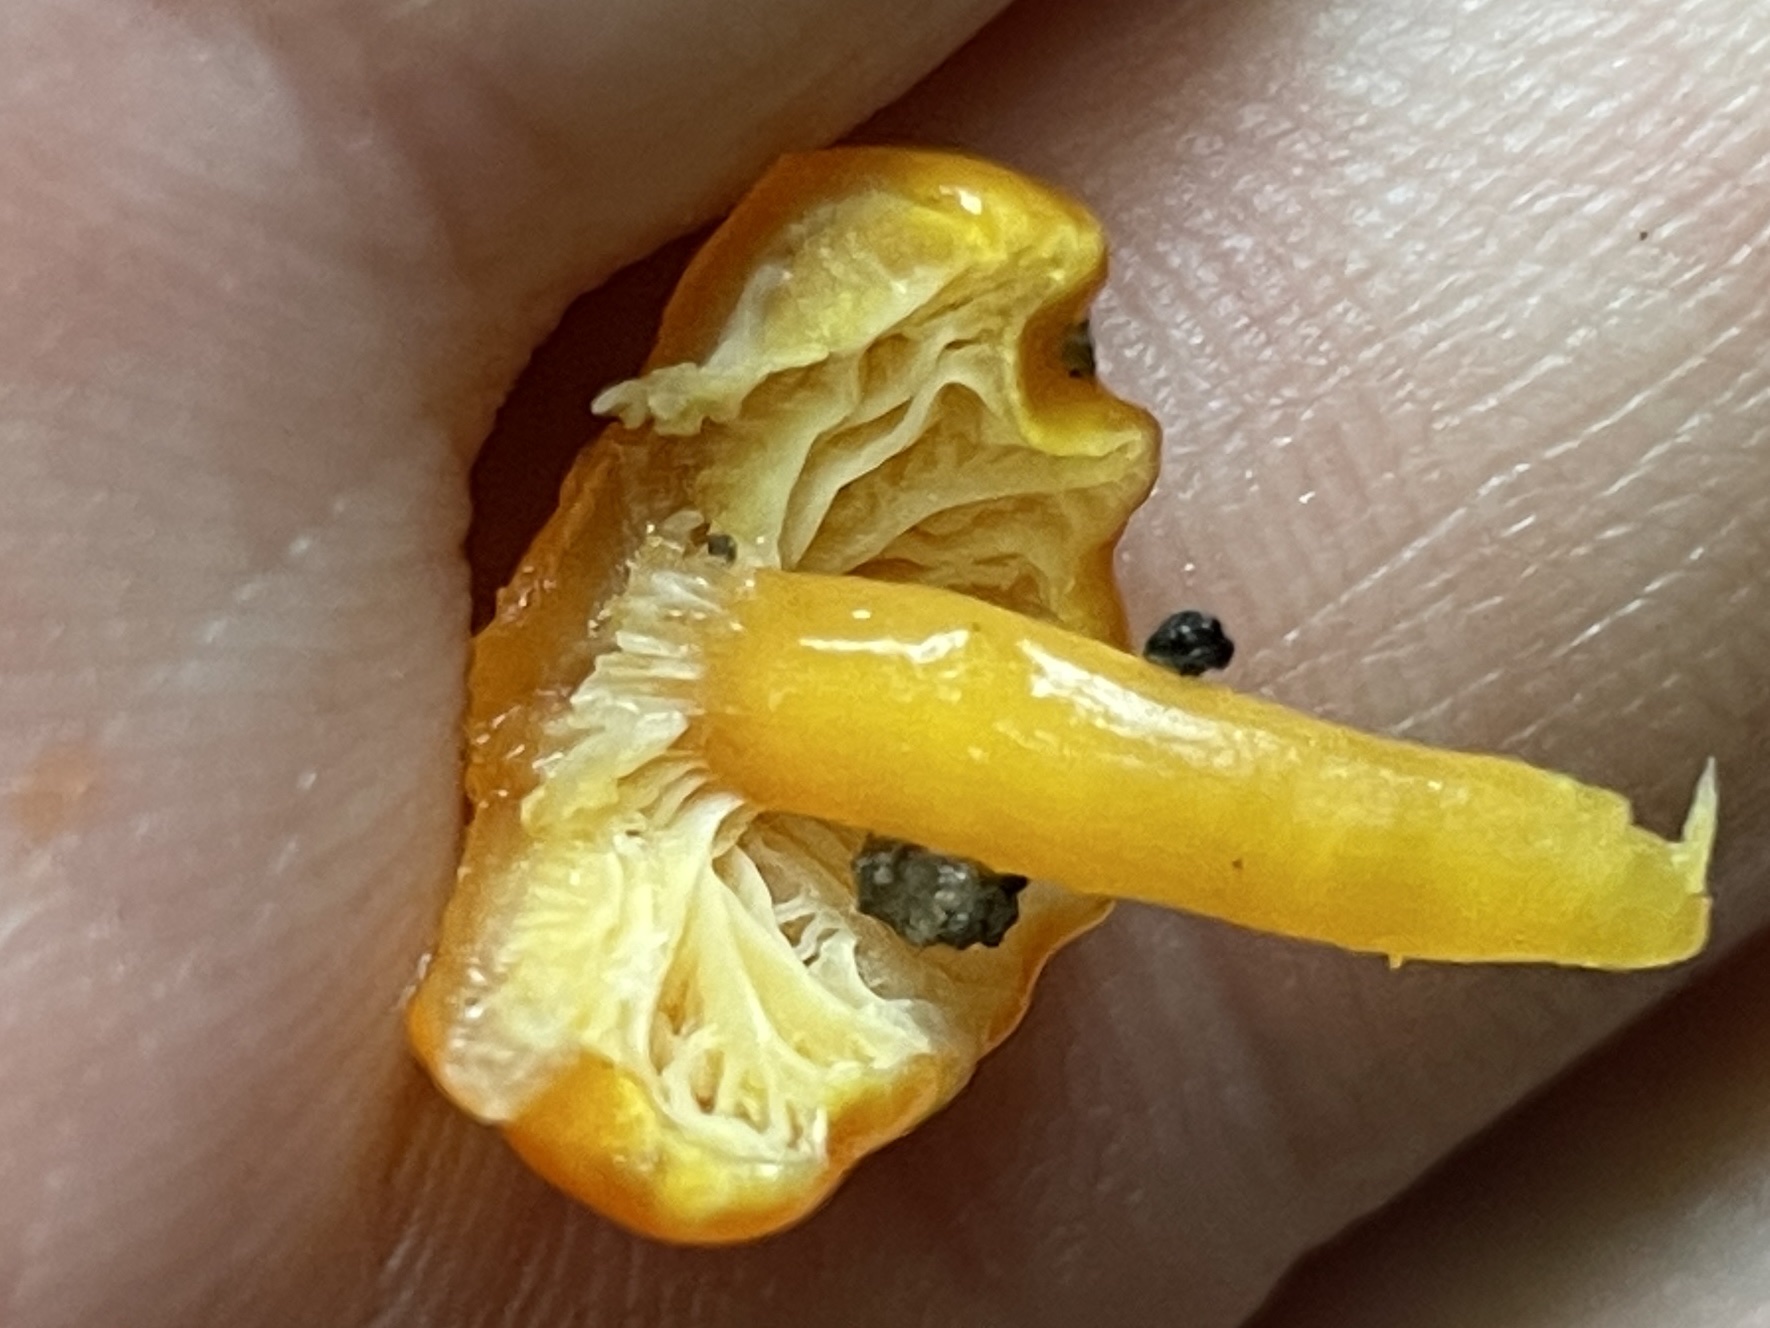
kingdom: Fungi
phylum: Basidiomycota
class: Agaricomycetes
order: Agaricales
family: Hygrophoraceae
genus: Hygrocybe
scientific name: Hygrocybe glutinipes
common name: slimstokket vokshat
